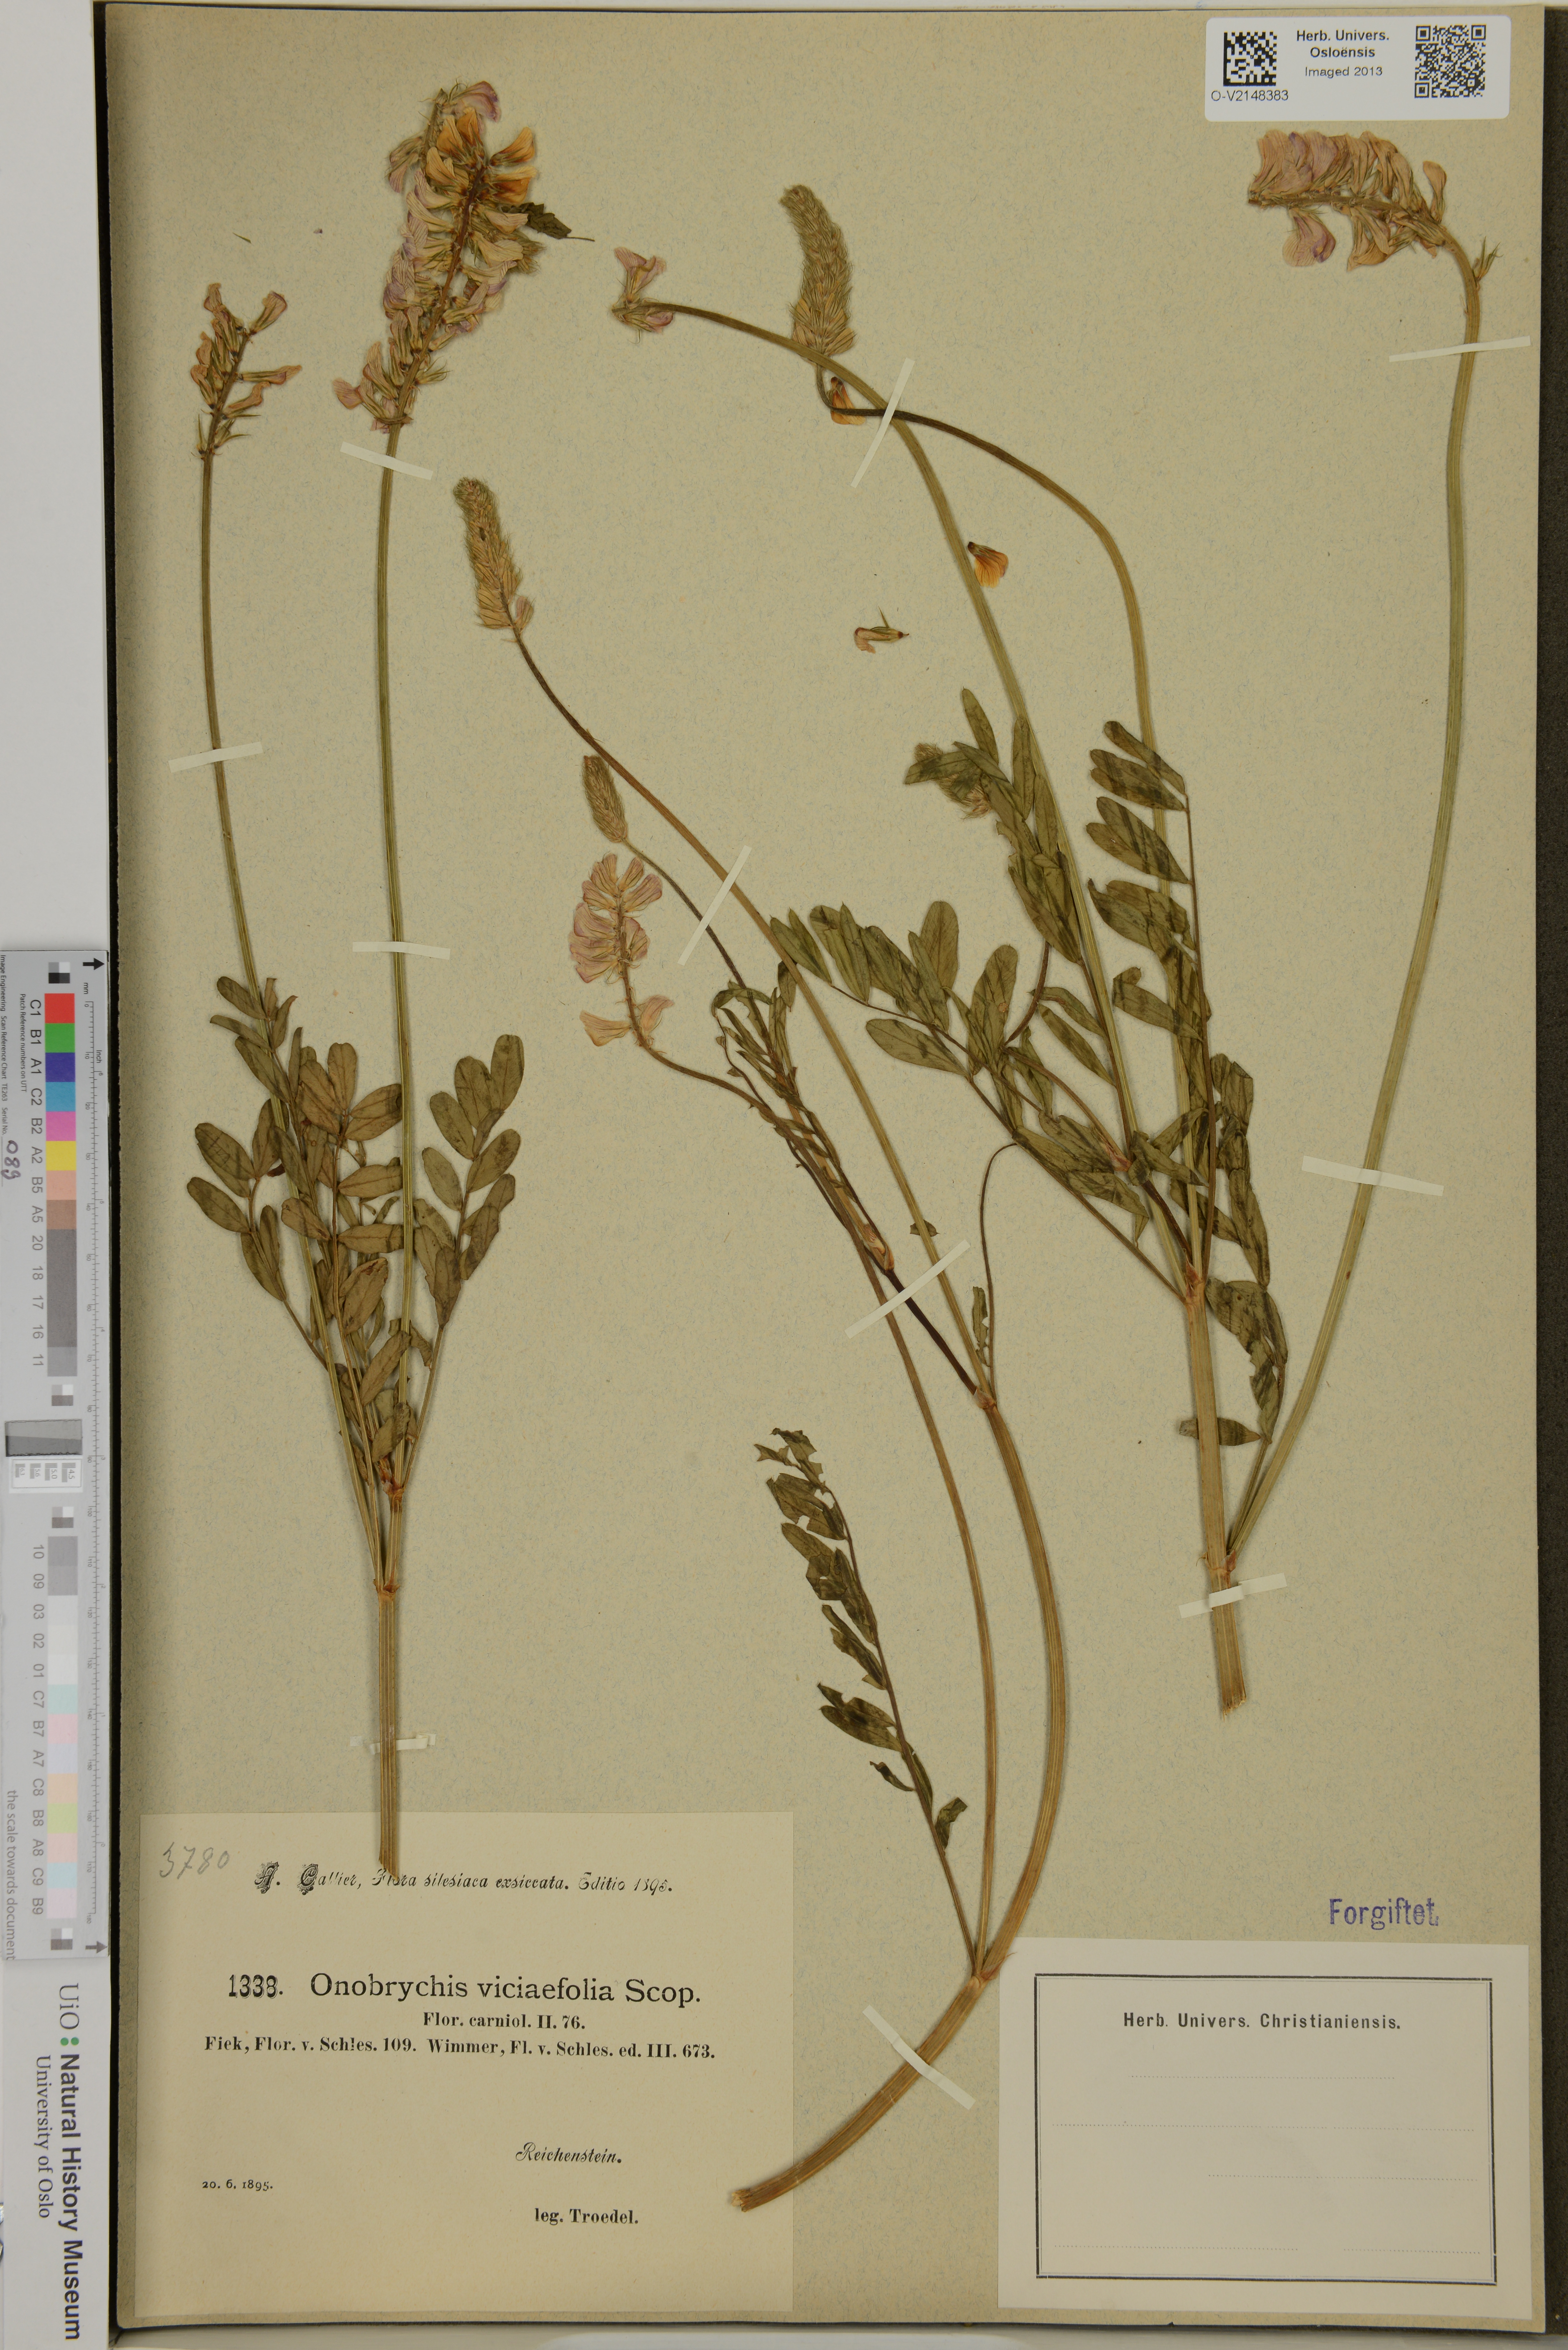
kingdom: Plantae
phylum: Tracheophyta
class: Magnoliopsida
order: Fabales
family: Fabaceae
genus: Onobrychis
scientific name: Onobrychis cyri
